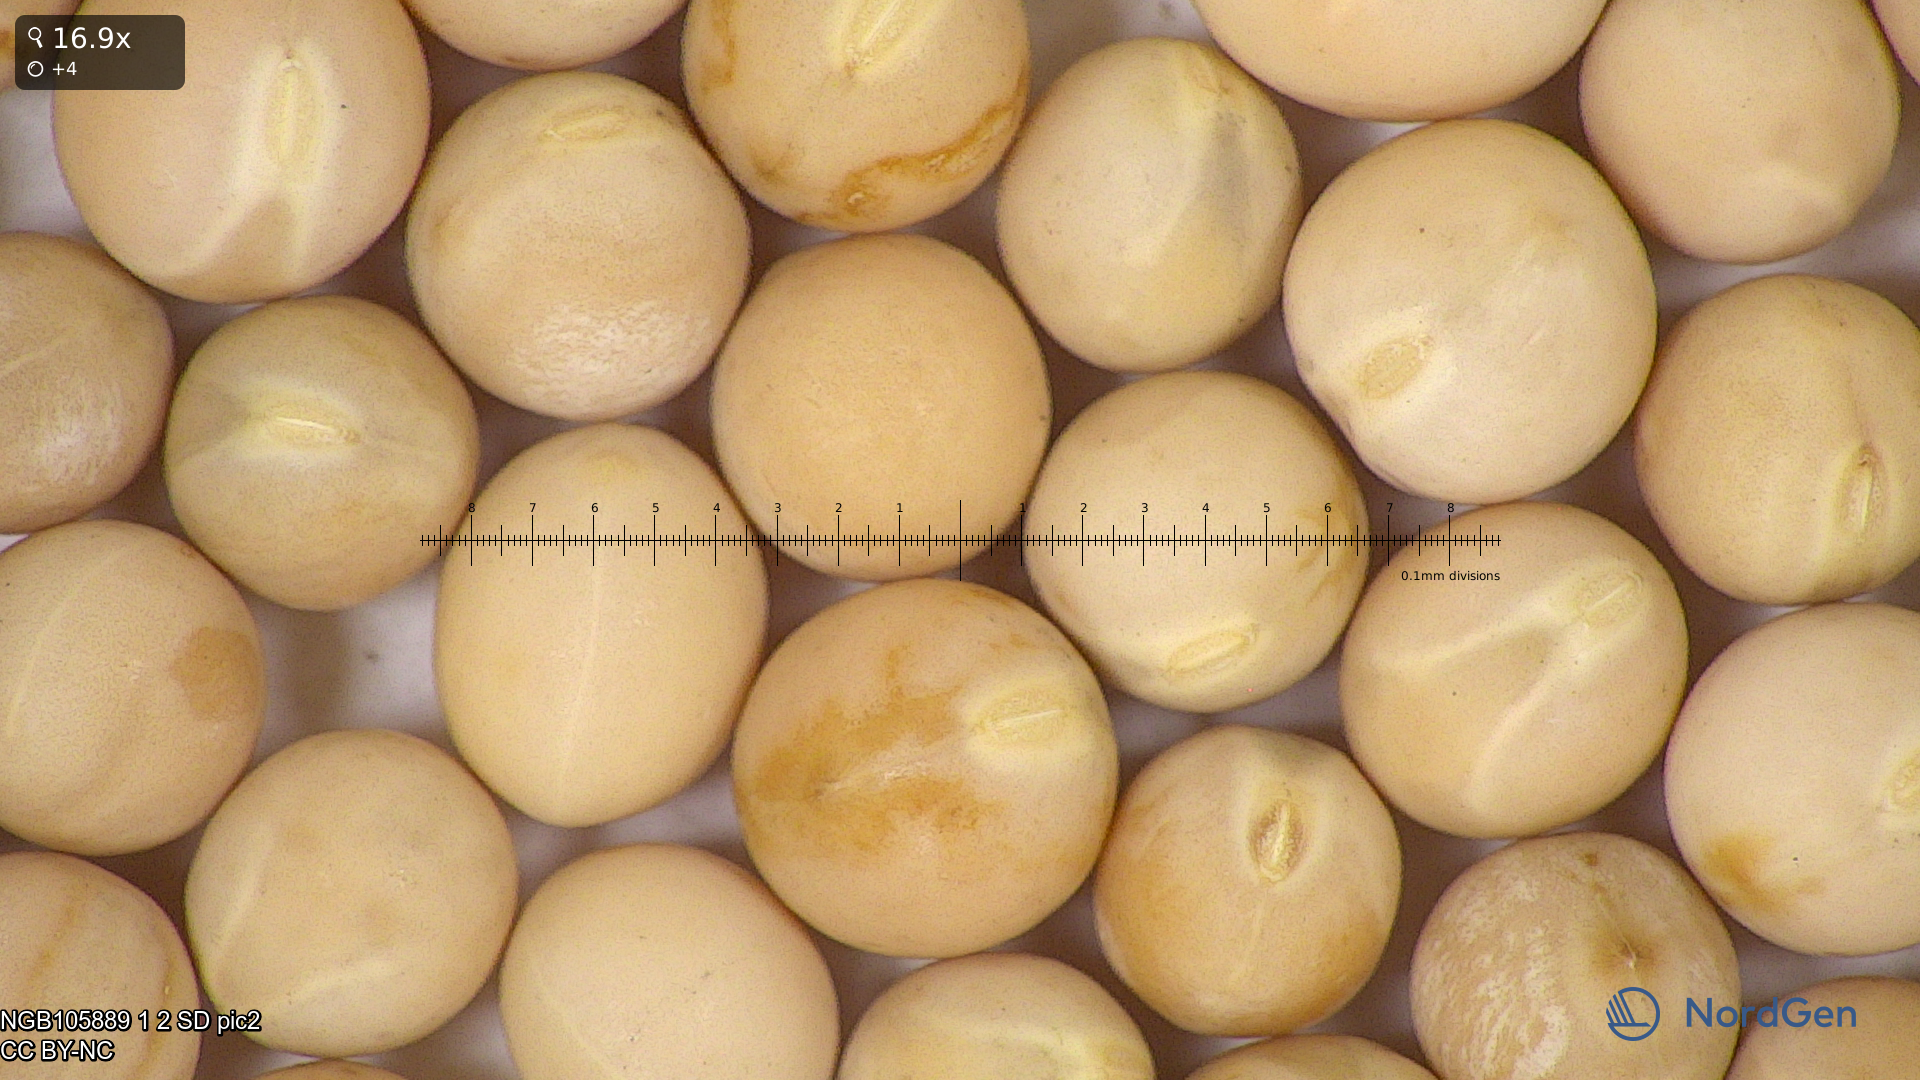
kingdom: Plantae
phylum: Tracheophyta
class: Magnoliopsida
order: Fabales
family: Fabaceae
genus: Lathyrus
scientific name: Lathyrus oleraceus
